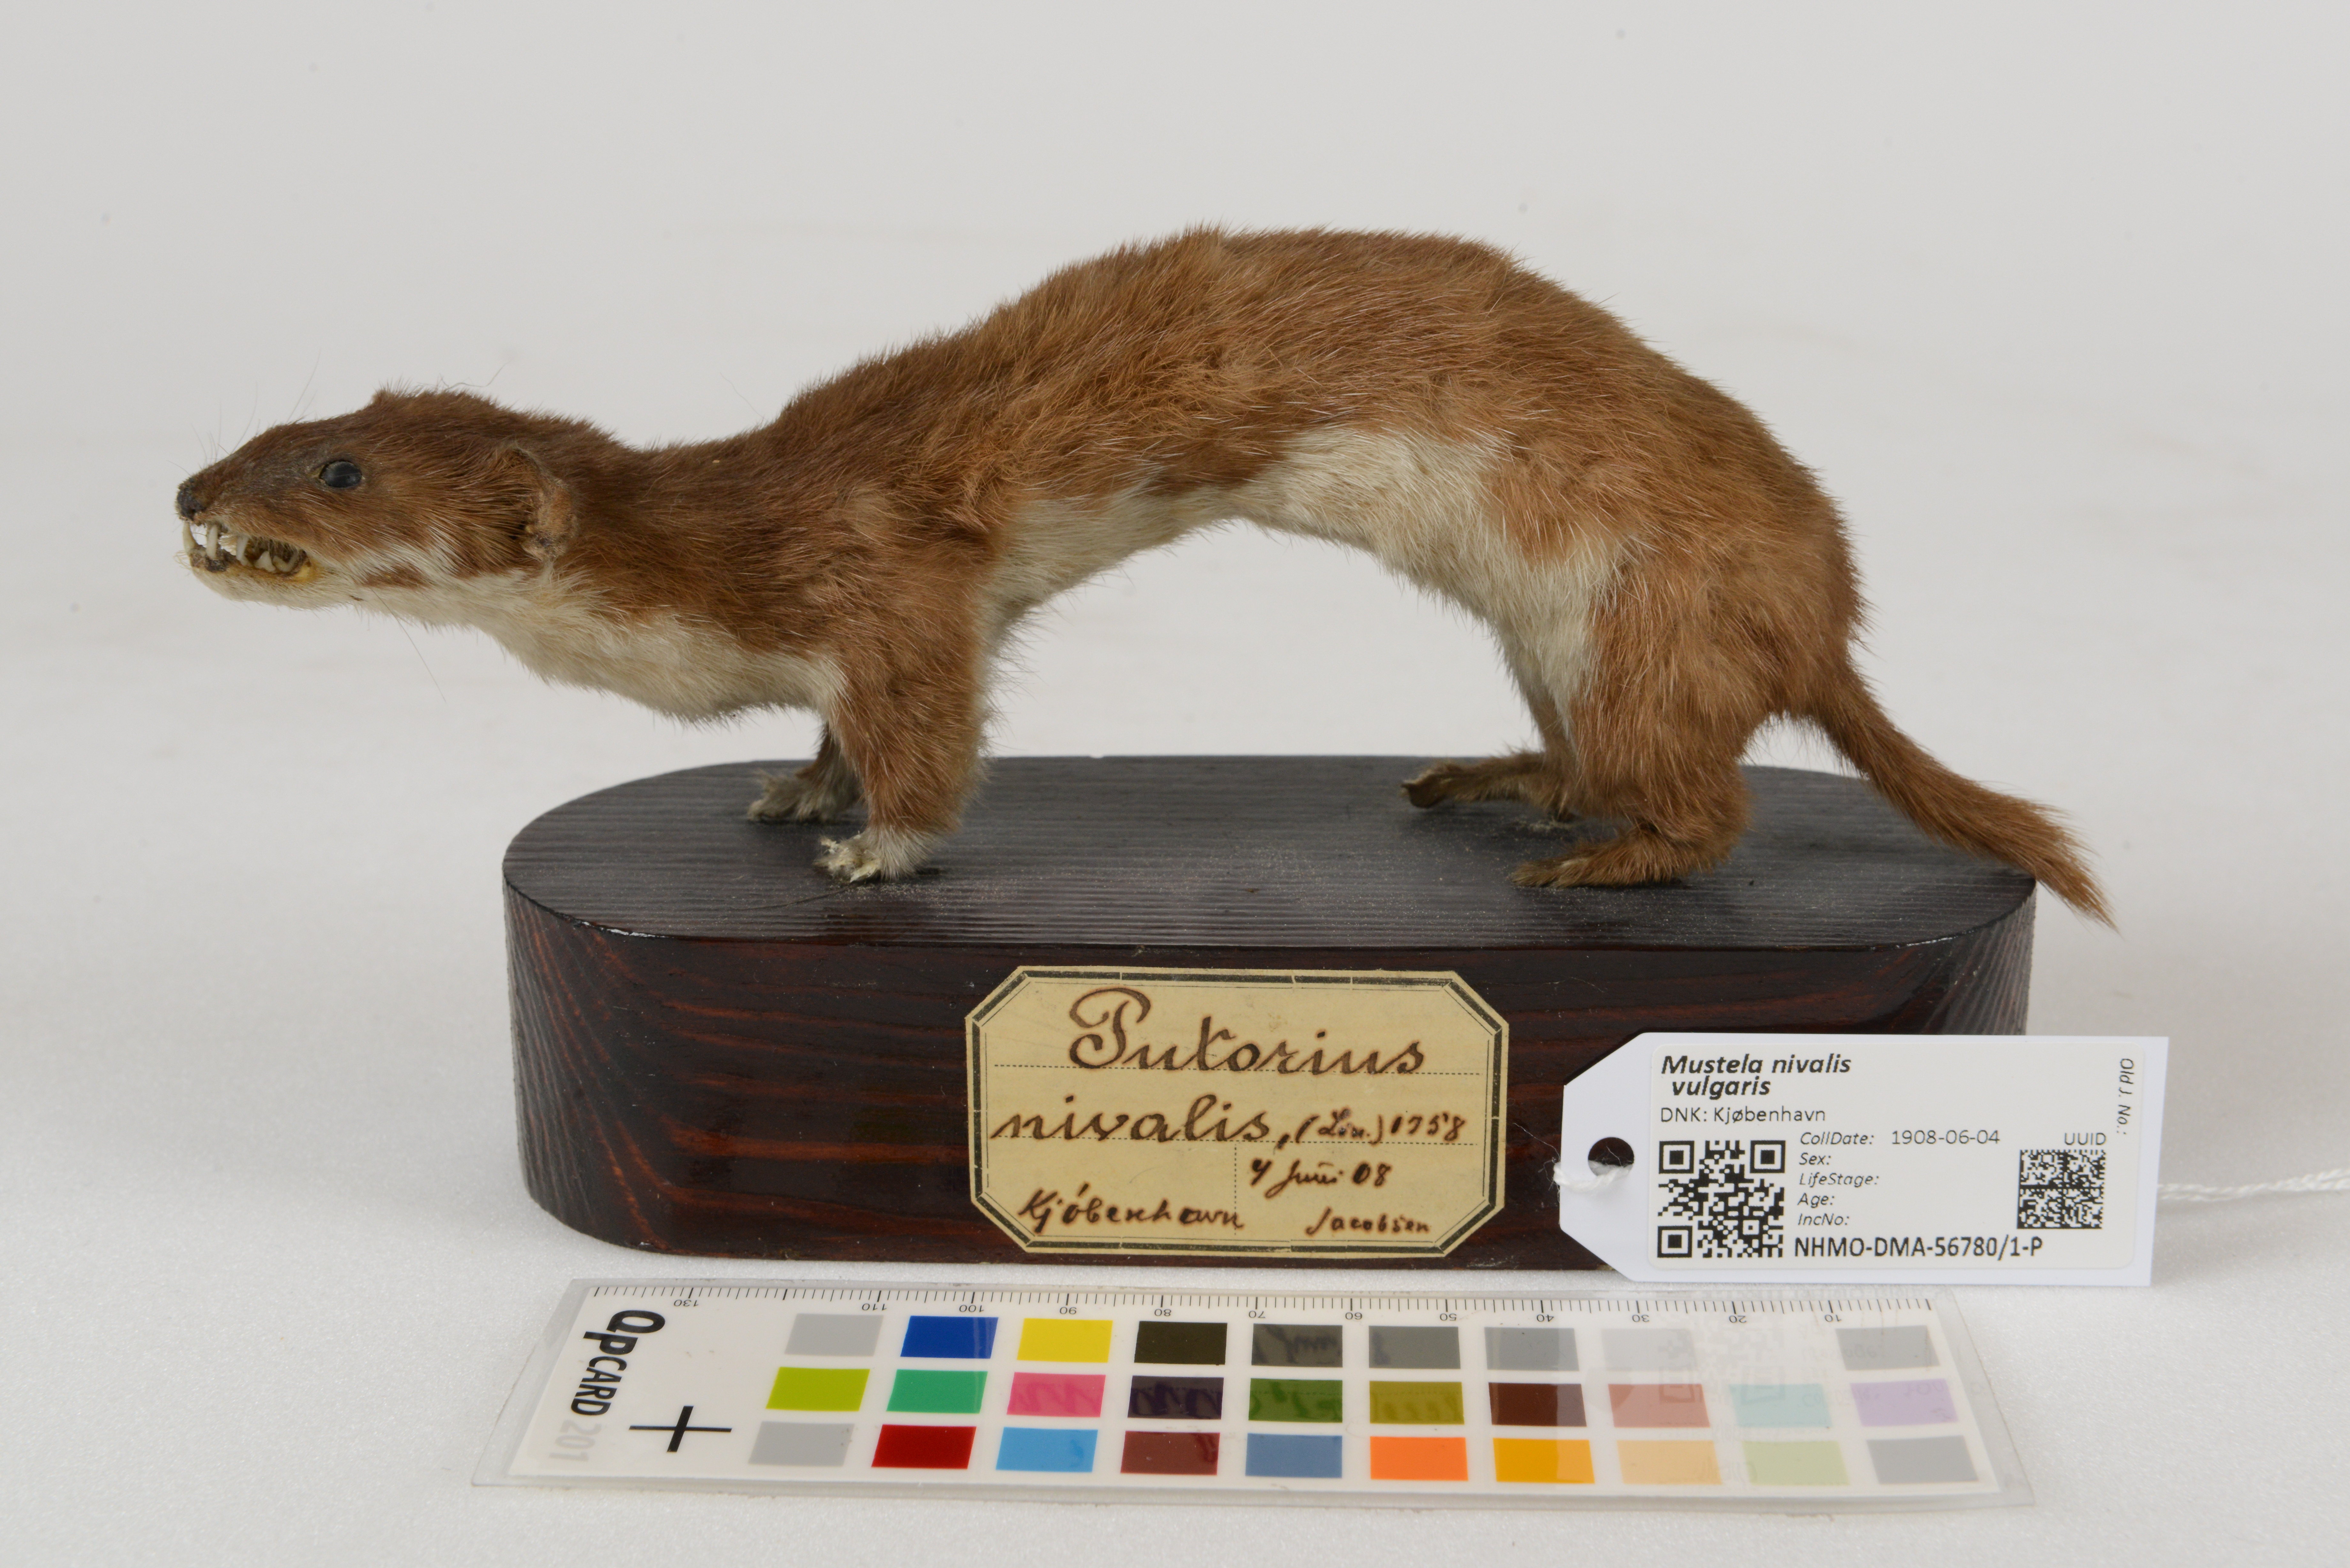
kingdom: Animalia
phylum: Chordata
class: Mammalia
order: Carnivora
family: Mustelidae
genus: Mustela
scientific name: Mustela nivalis
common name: Least weasel
